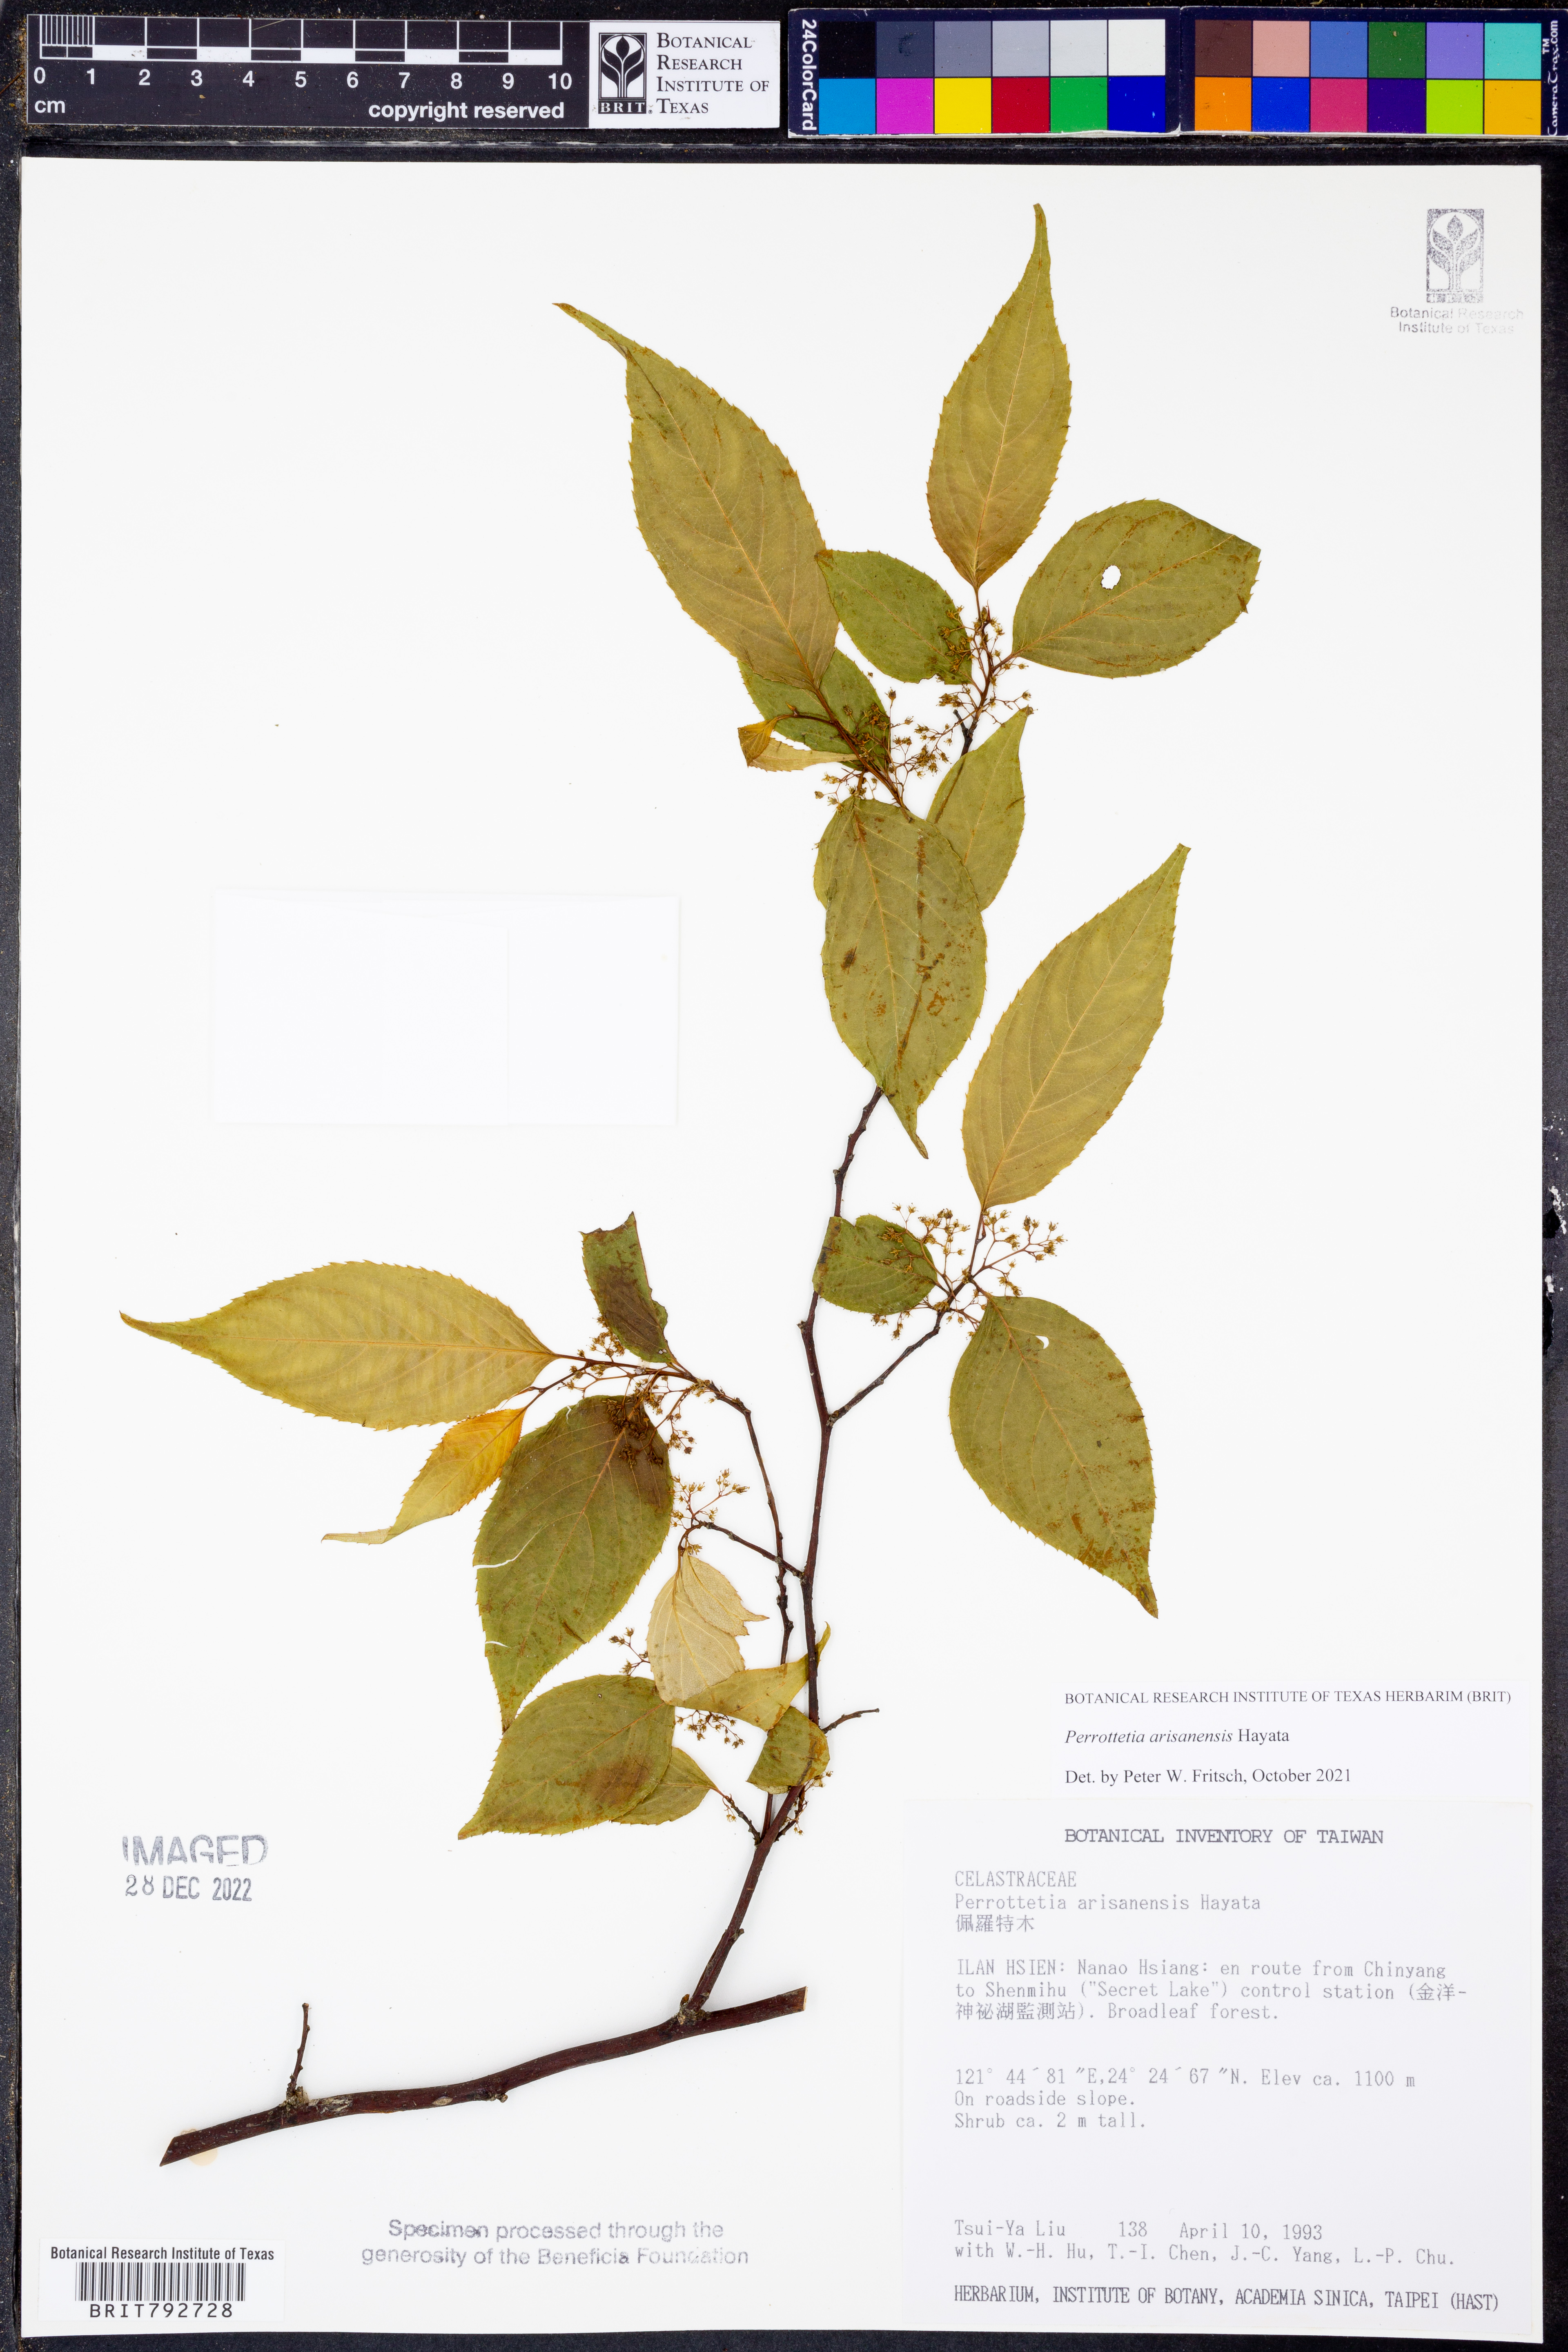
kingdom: Plantae
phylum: Tracheophyta
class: Magnoliopsida
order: Huerteales
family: Dipentodontaceae
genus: Perrottetia
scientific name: Perrottetia arisanensis
